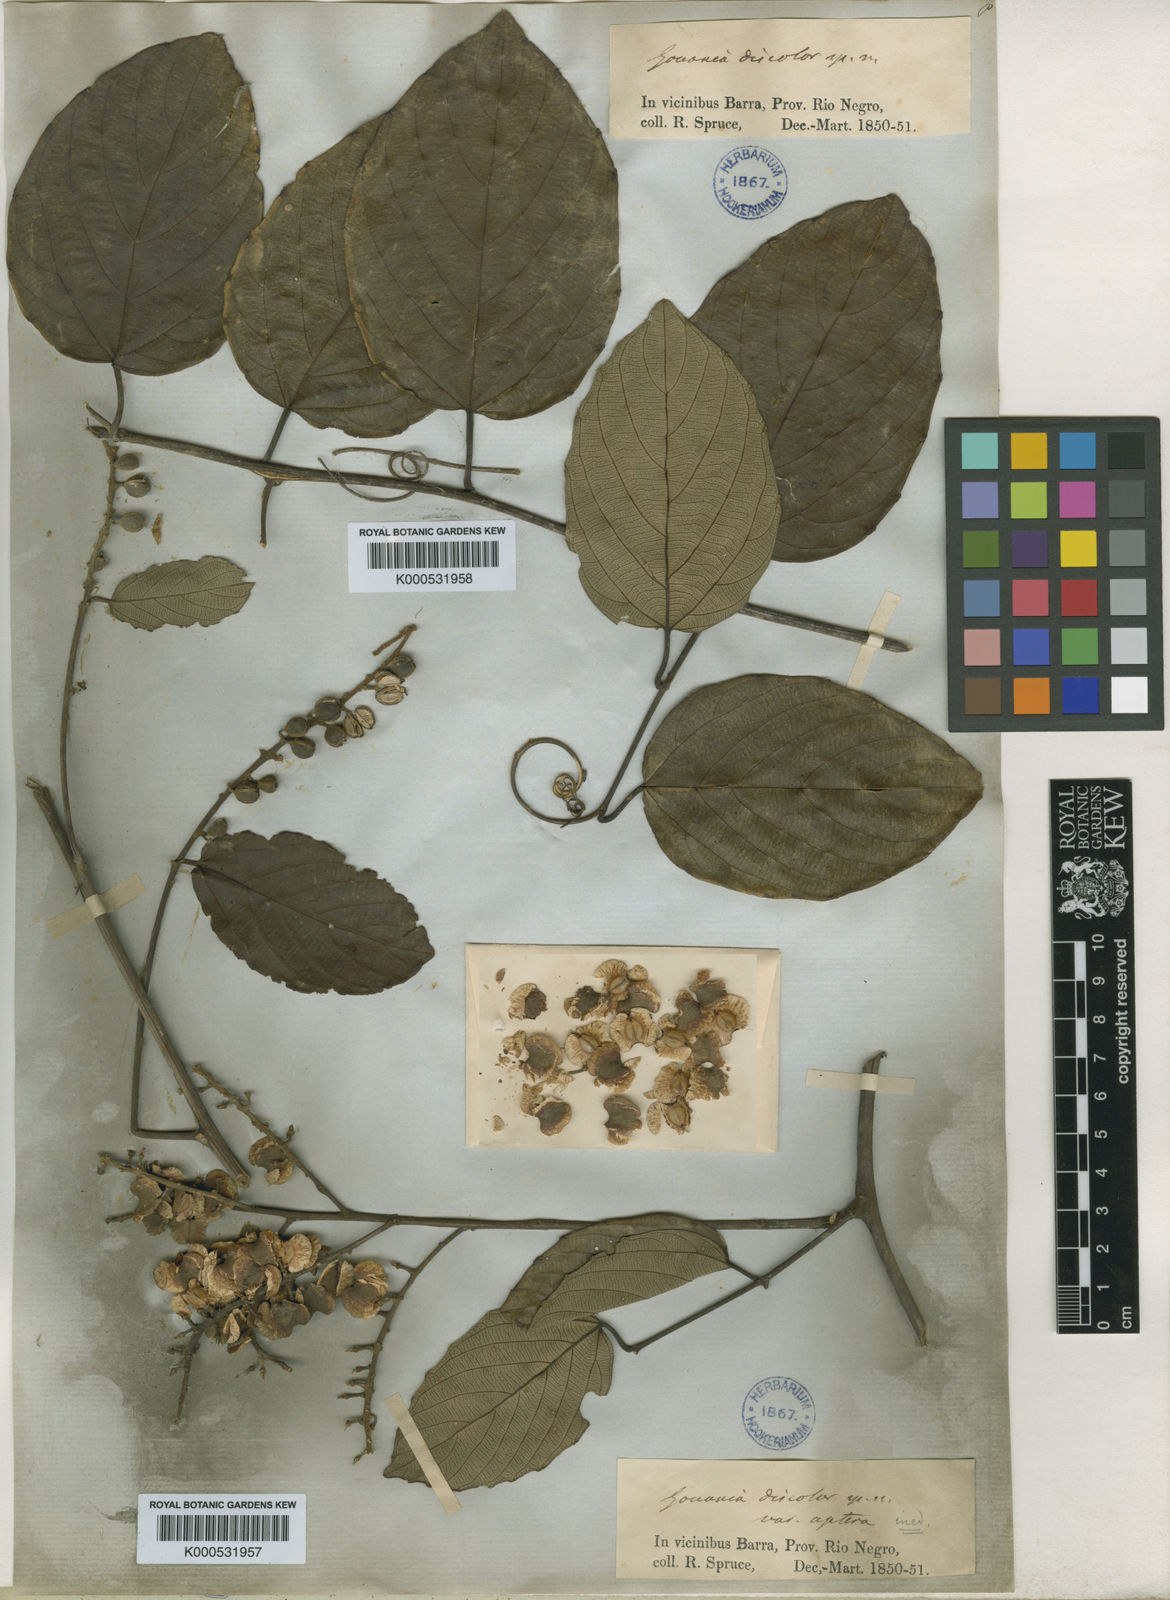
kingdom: Plantae
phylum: Tracheophyta
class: Magnoliopsida
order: Rosales
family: Rhamnaceae
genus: Gouania
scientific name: Gouania discolor
